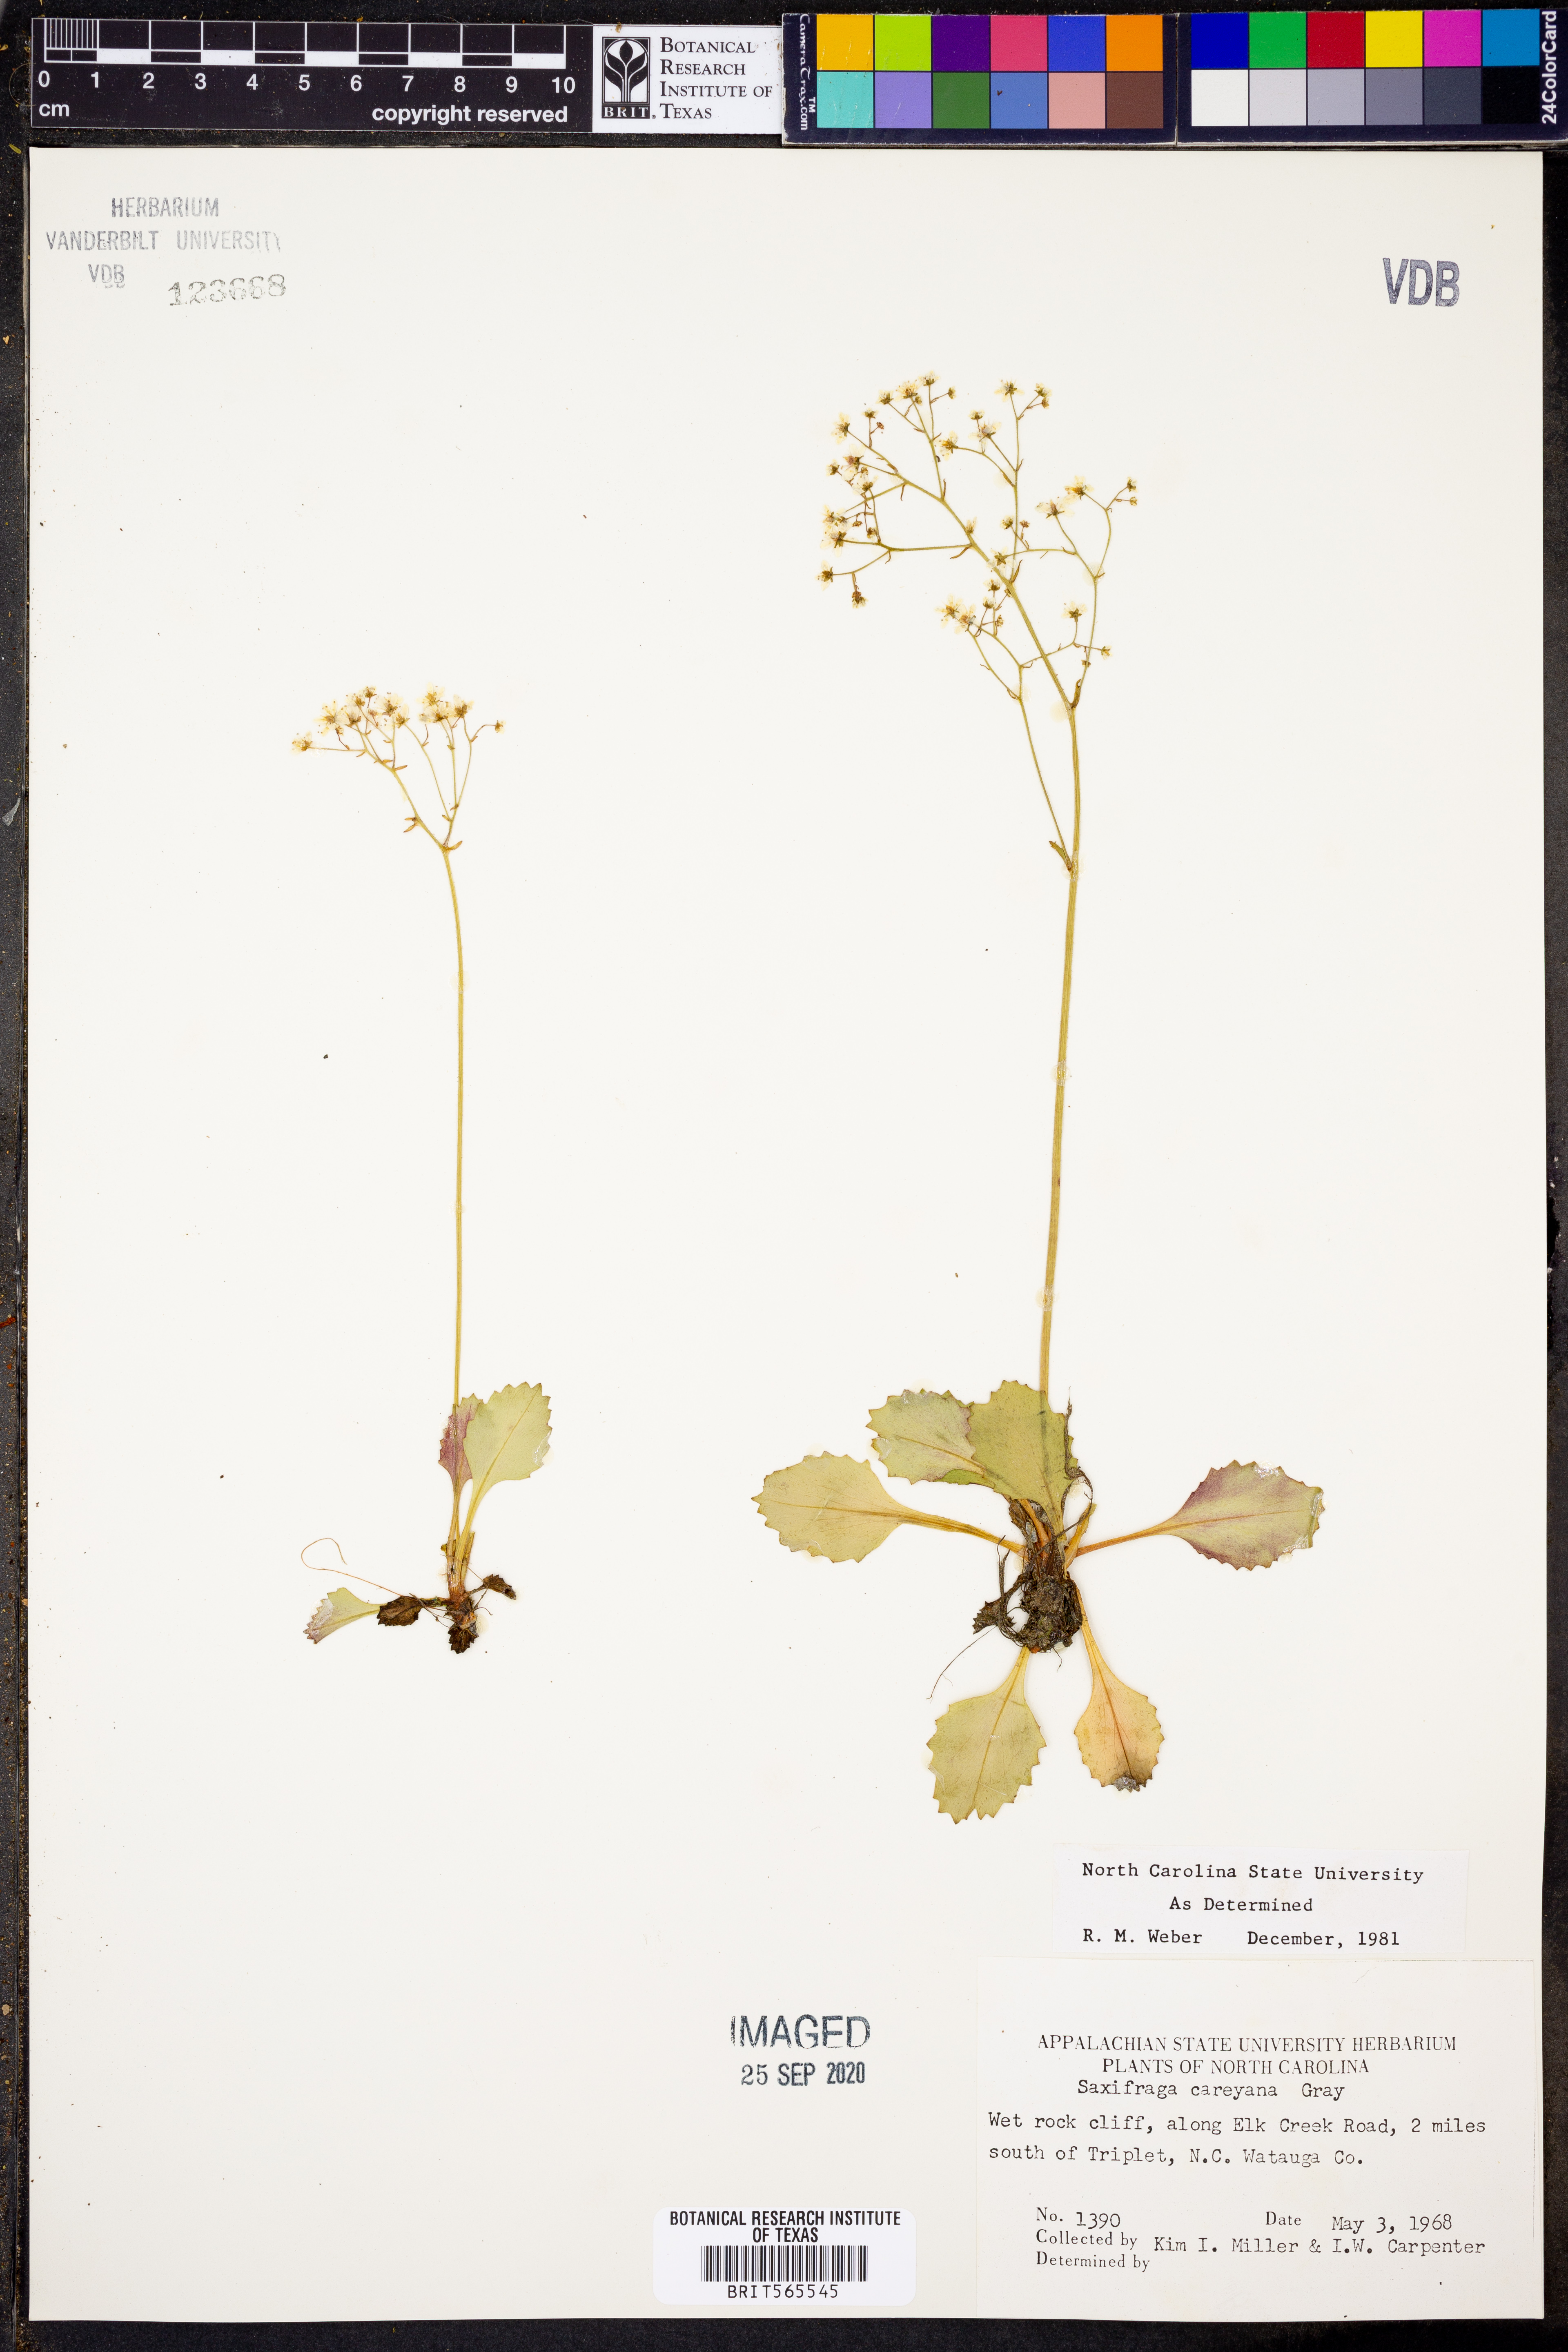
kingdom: Plantae
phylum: Tracheophyta
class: Magnoliopsida
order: Saxifragales
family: Saxifragaceae
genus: Micranthes
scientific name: Micranthes careyana
